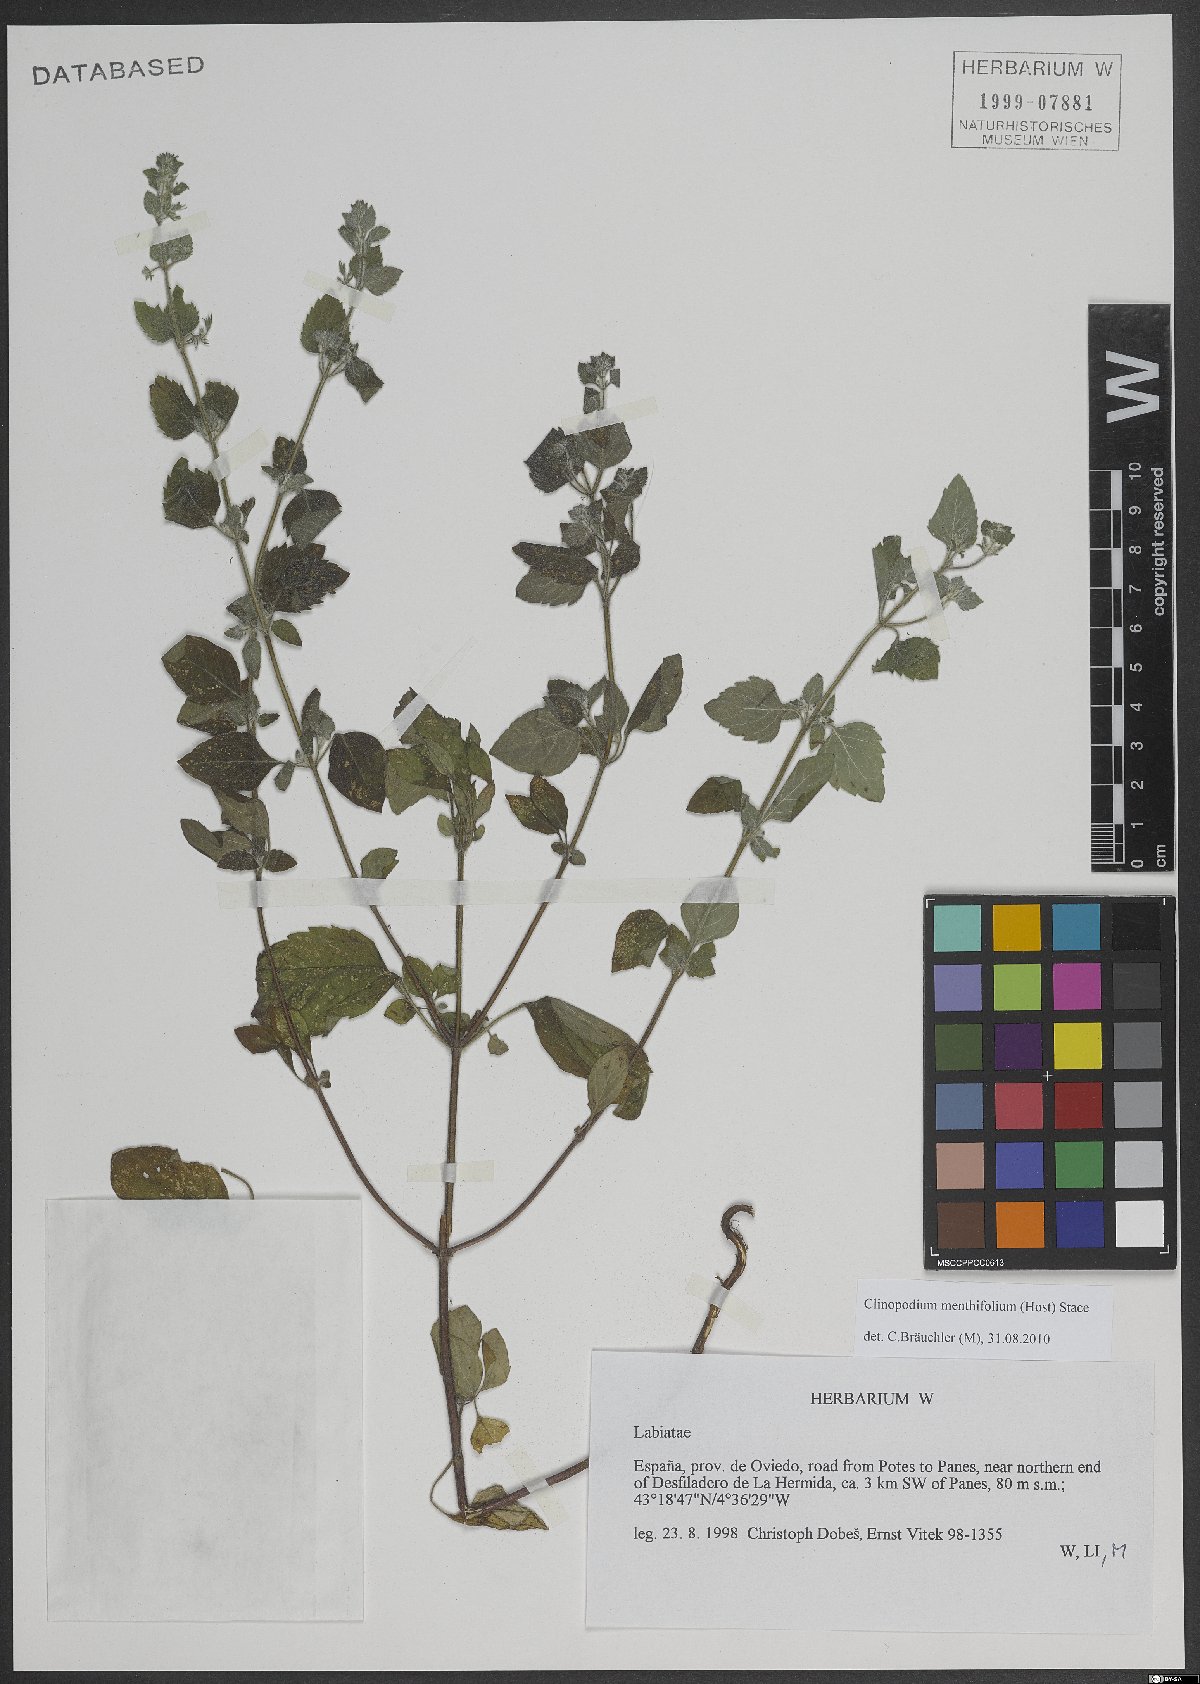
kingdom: Plantae
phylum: Tracheophyta
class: Magnoliopsida
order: Lamiales
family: Lamiaceae
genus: Clinopodium
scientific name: Clinopodium menthifolium
